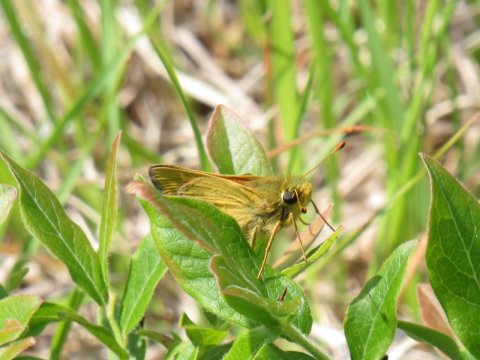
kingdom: Animalia
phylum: Arthropoda
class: Insecta
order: Lepidoptera
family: Hesperiidae
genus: Hesperia
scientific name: Hesperia sassacus
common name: Sassacus Skipper
